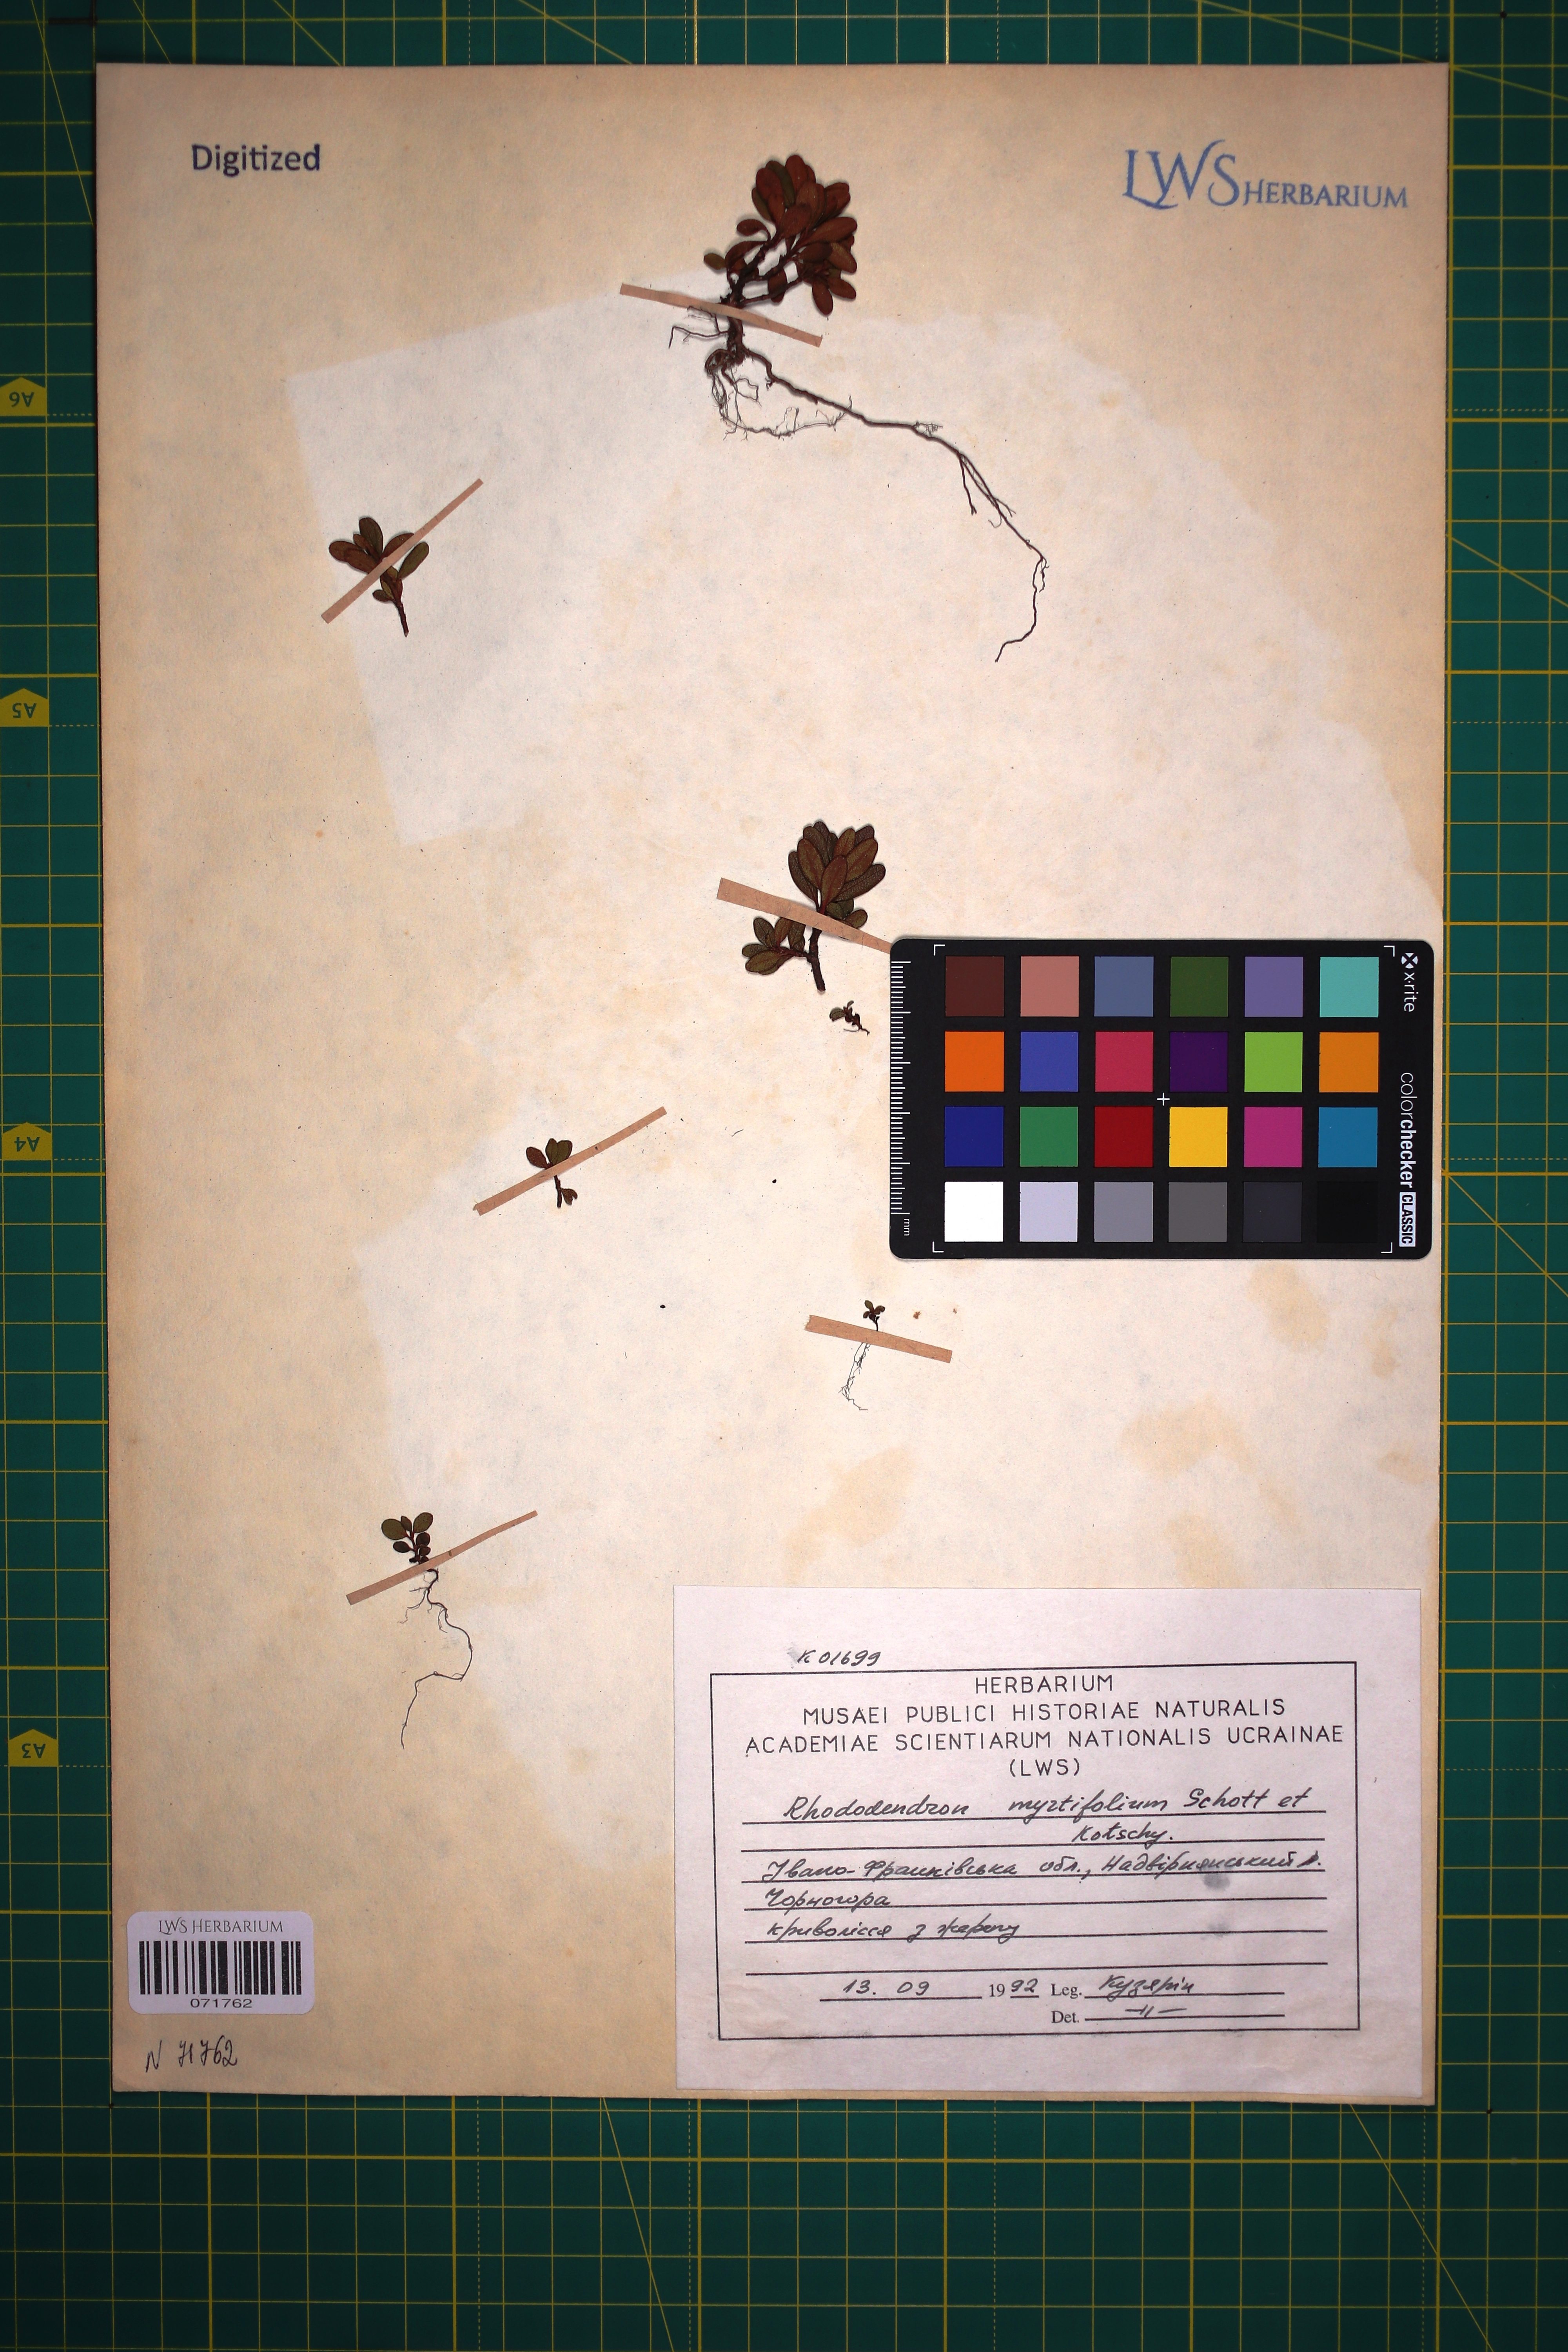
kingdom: Plantae
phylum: Tracheophyta
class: Magnoliopsida
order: Ericales
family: Ericaceae
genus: Rhododendron
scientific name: Rhododendron kotschyi
